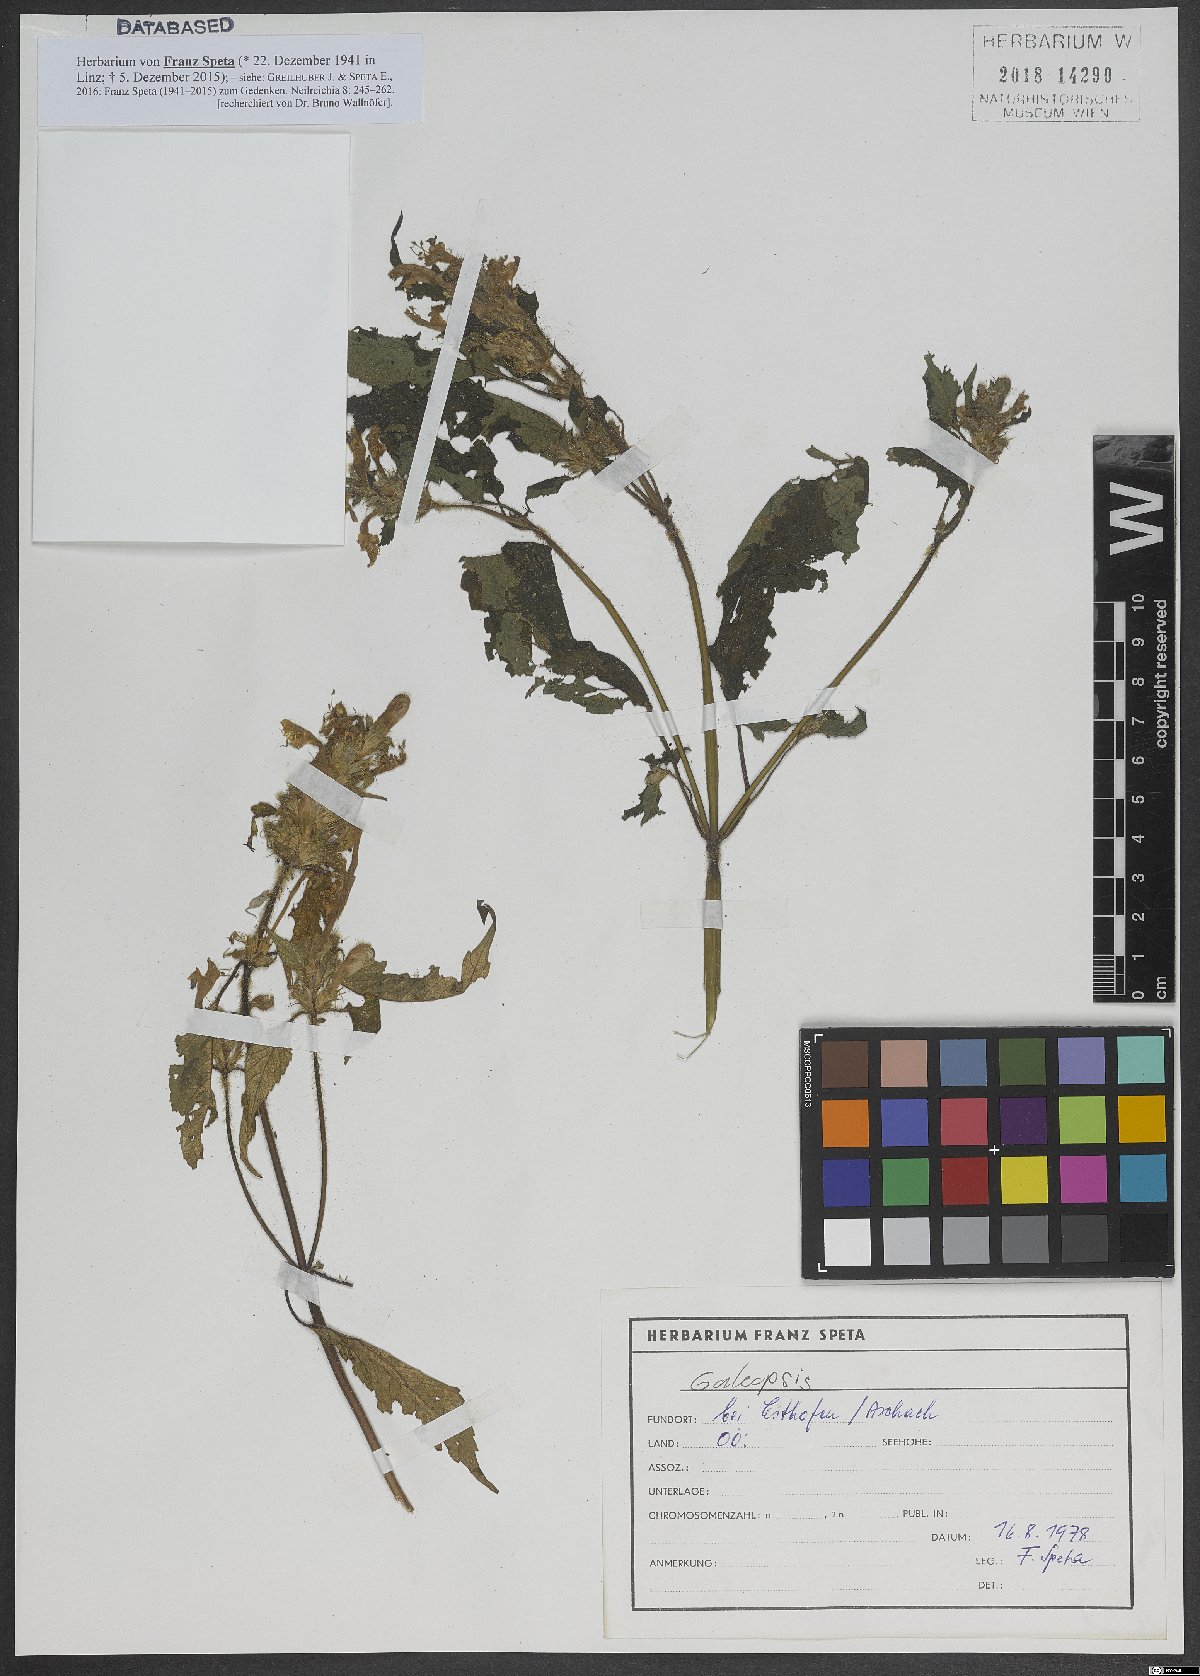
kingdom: Plantae
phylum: Tracheophyta
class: Magnoliopsida
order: Lamiales
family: Lamiaceae
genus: Galeopsis
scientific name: Galeopsis
